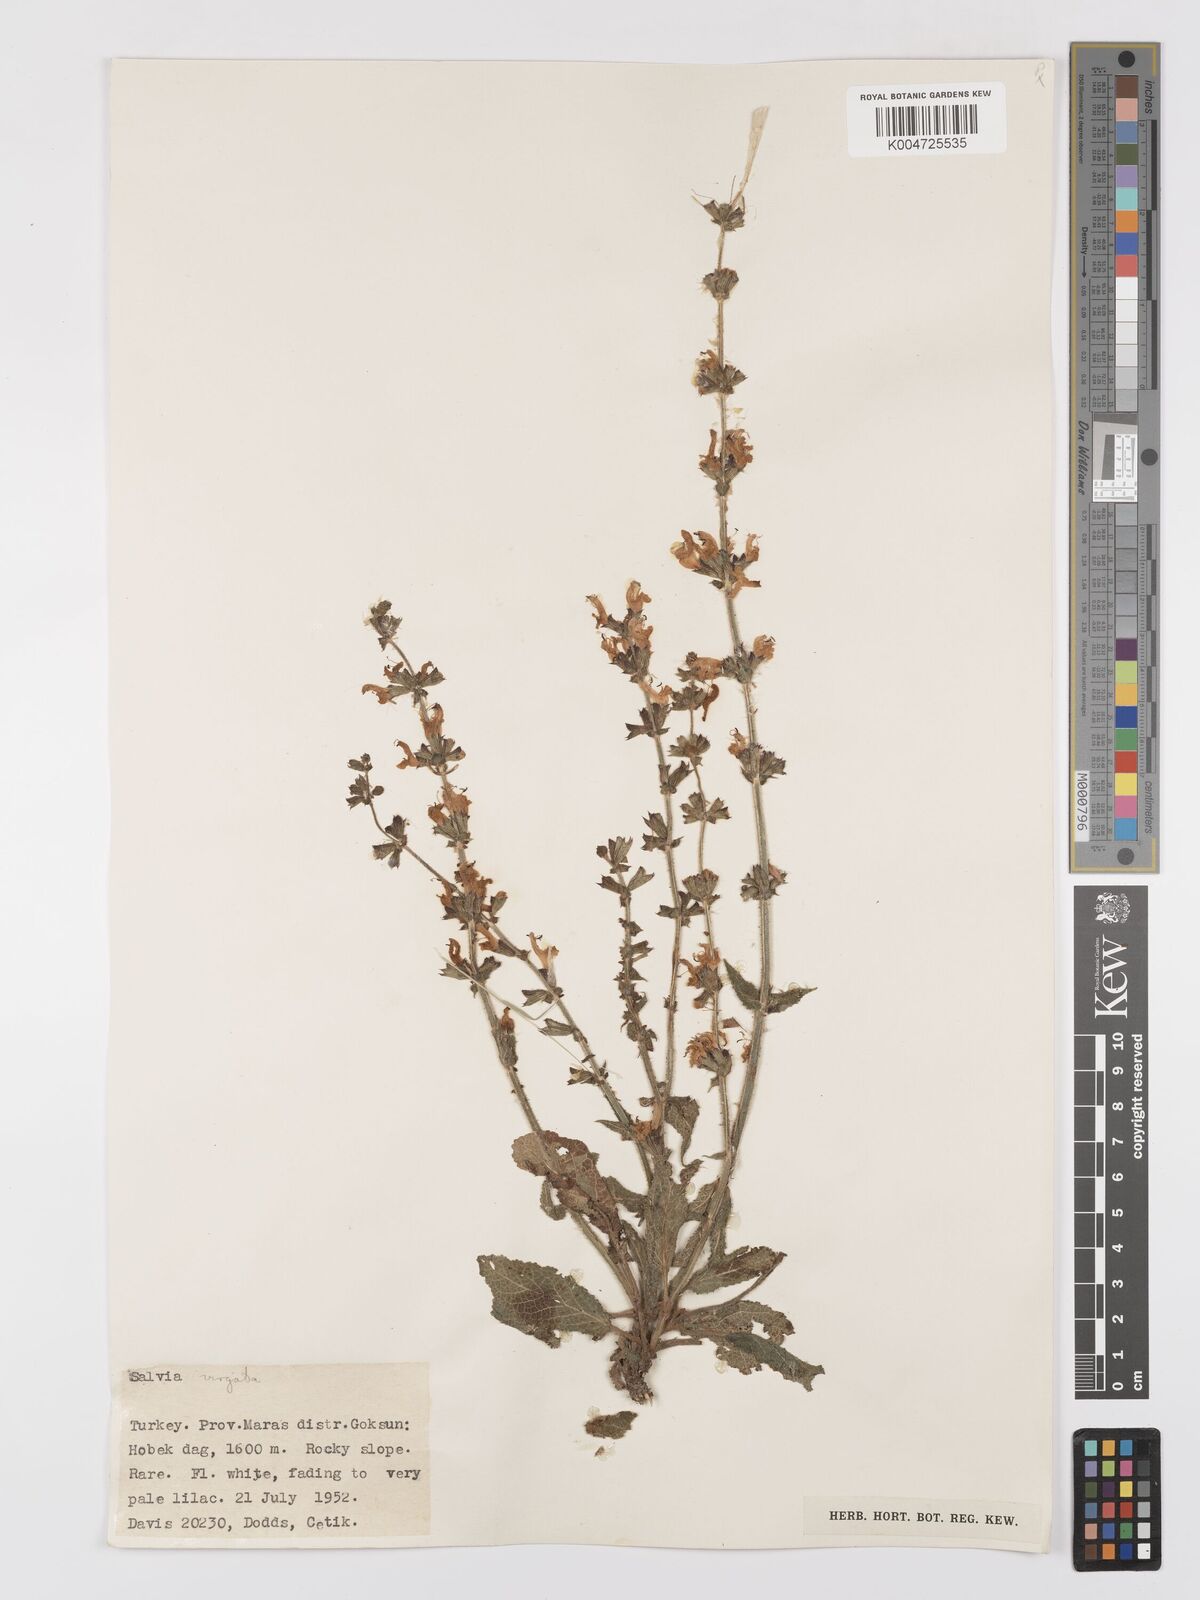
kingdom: Plantae
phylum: Tracheophyta
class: Magnoliopsida
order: Lamiales
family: Lamiaceae
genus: Salvia
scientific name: Salvia
